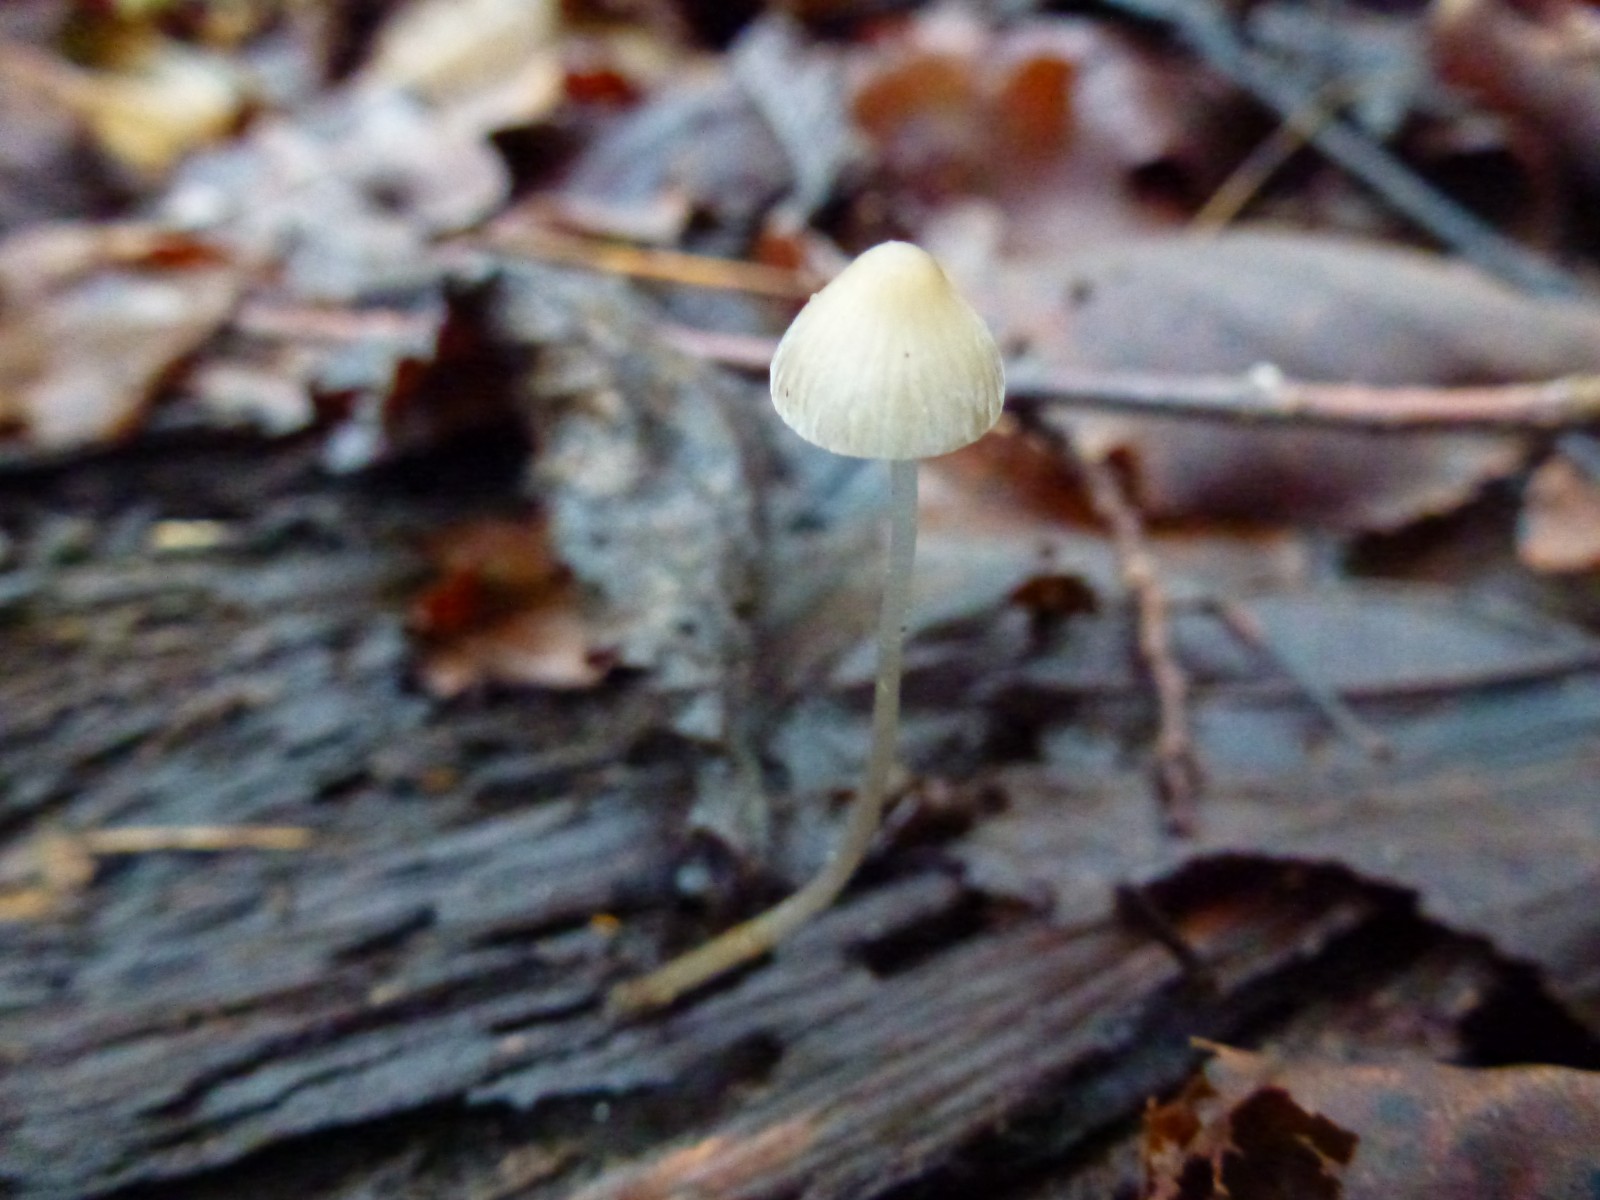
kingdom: Fungi
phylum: Basidiomycota
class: Agaricomycetes
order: Agaricales
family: Mycenaceae
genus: Mycena
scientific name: Mycena
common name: huesvamp
